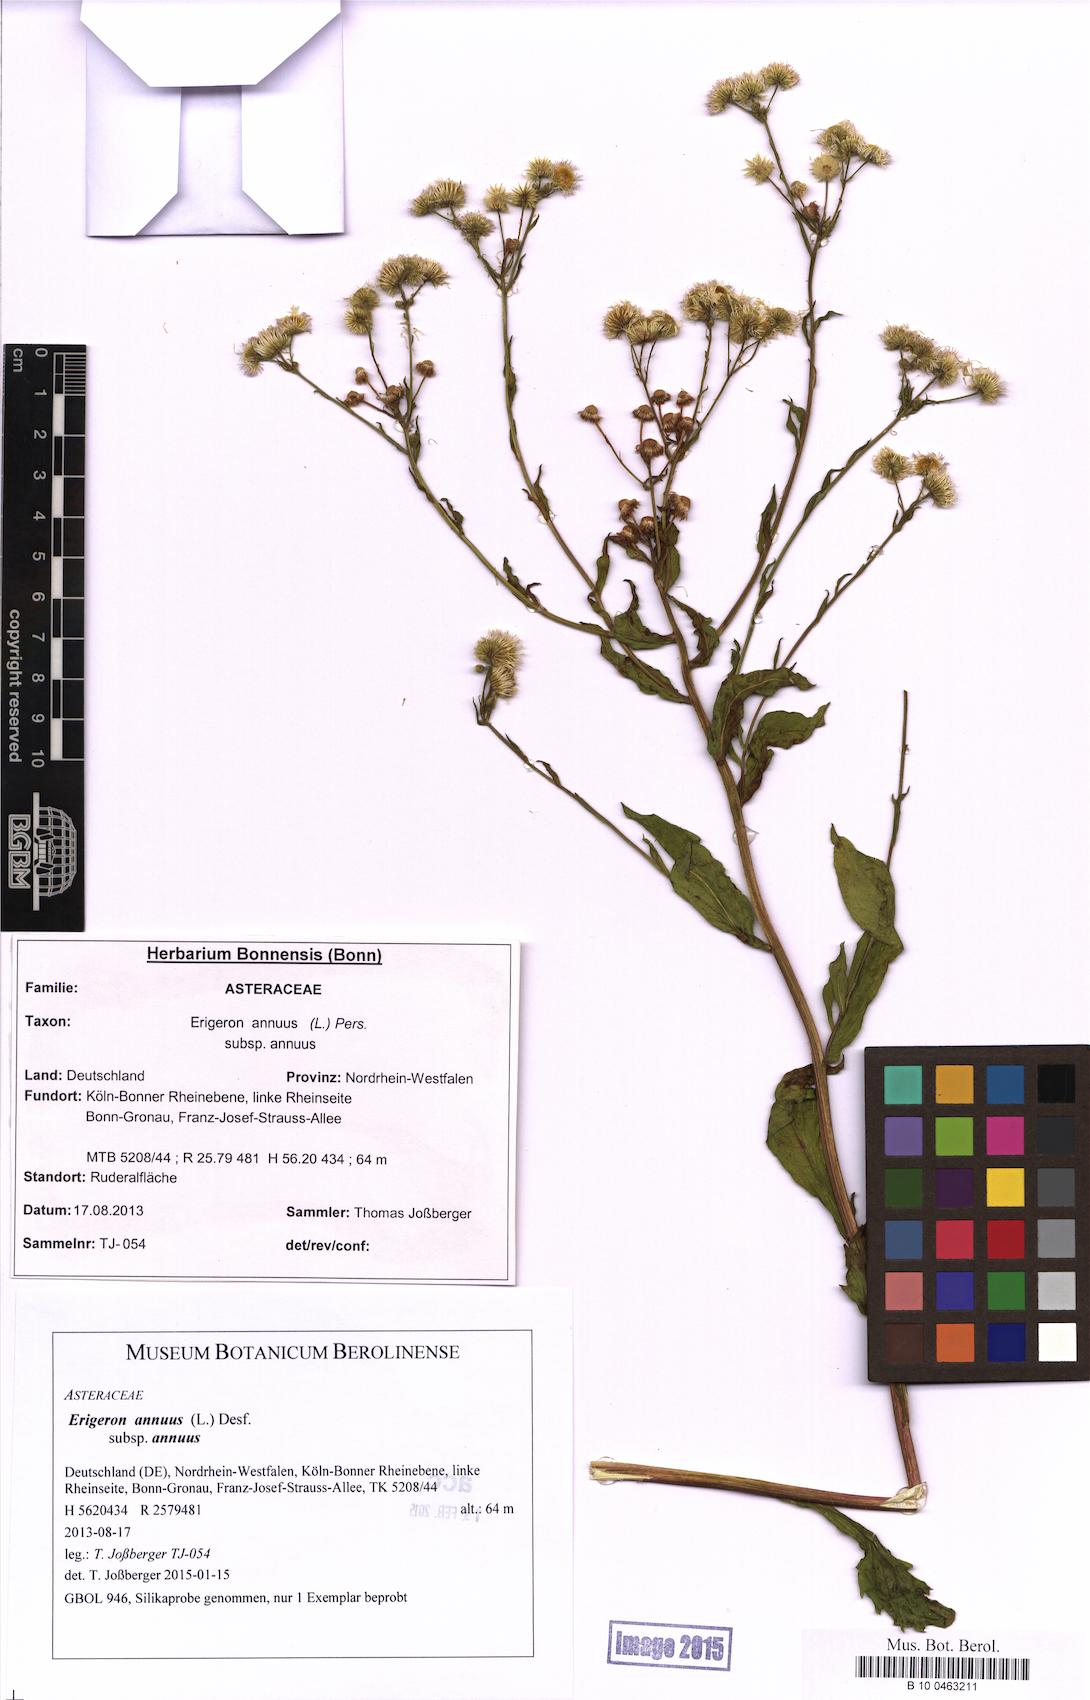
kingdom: Plantae
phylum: Tracheophyta
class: Magnoliopsida
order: Asterales
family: Asteraceae
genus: Erigeron
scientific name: Erigeron annuus
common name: Tall fleabane
